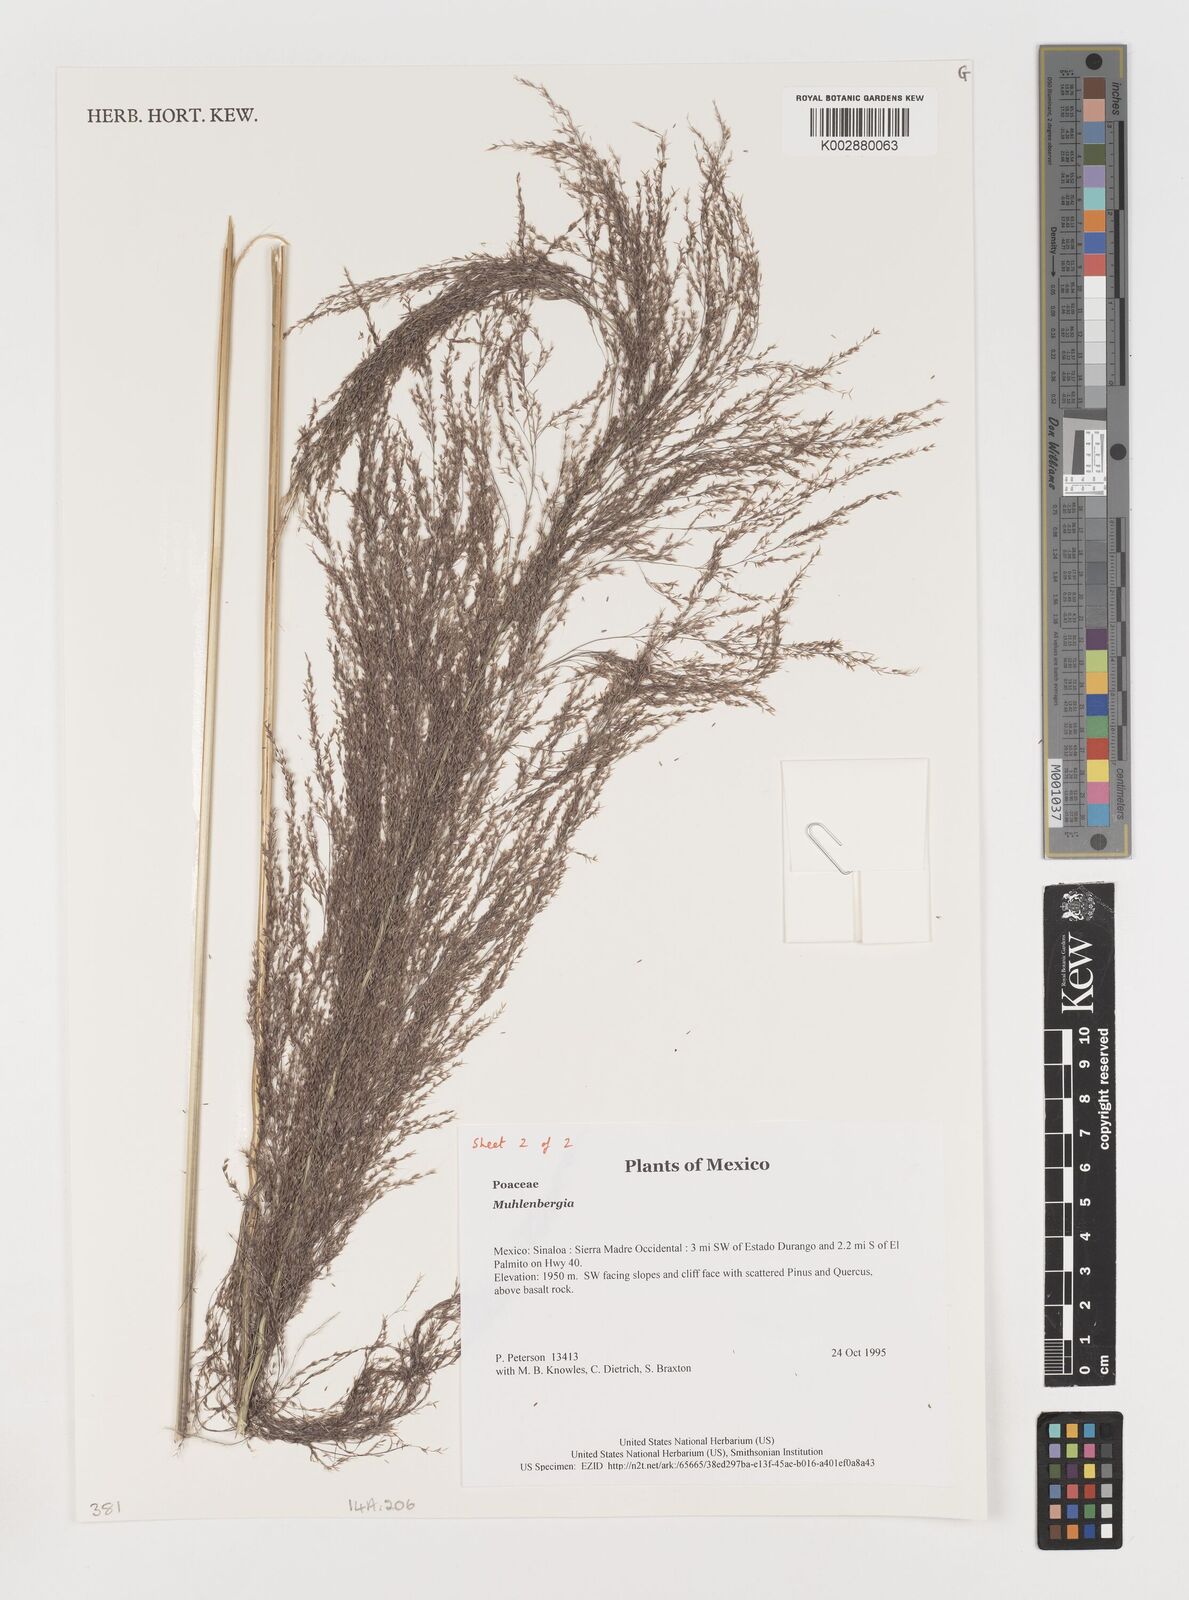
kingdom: Plantae
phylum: Tracheophyta
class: Liliopsida
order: Poales
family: Poaceae
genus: Muhlenbergia
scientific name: Muhlenbergia
